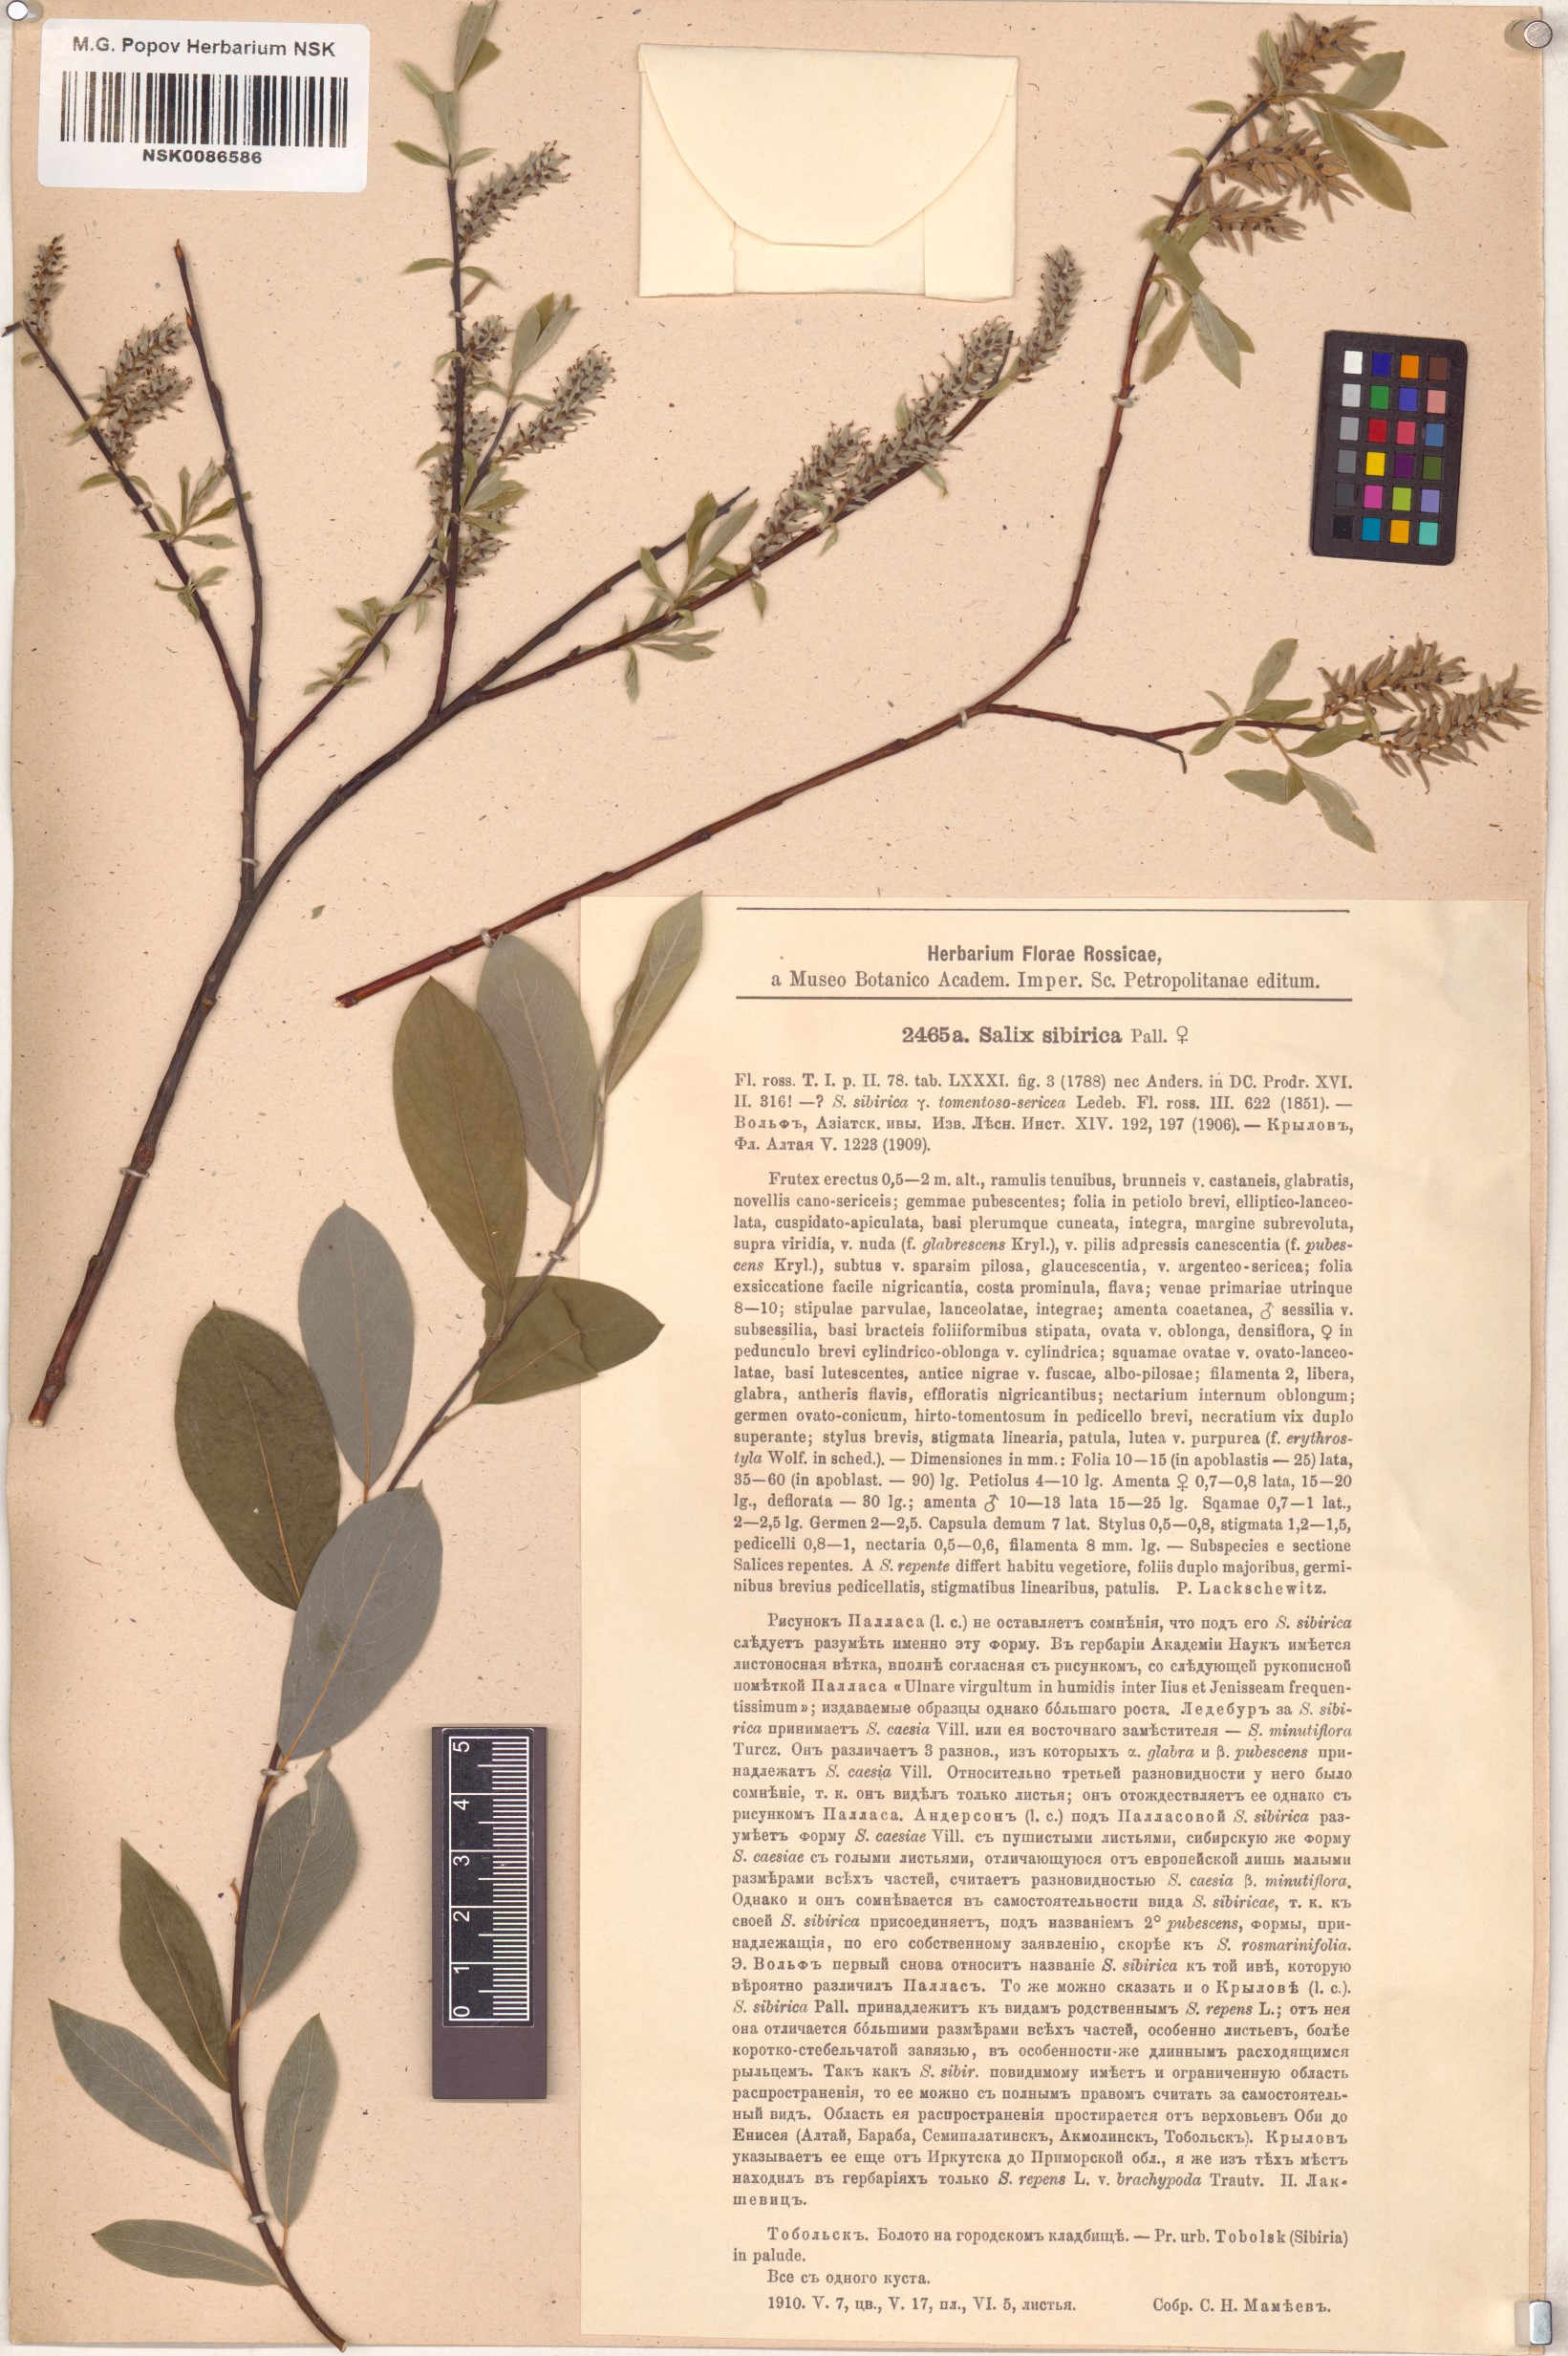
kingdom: Plantae
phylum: Tracheophyta
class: Magnoliopsida
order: Malpighiales
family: Salicaceae
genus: Salix
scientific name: Salix rosmarinifolia
